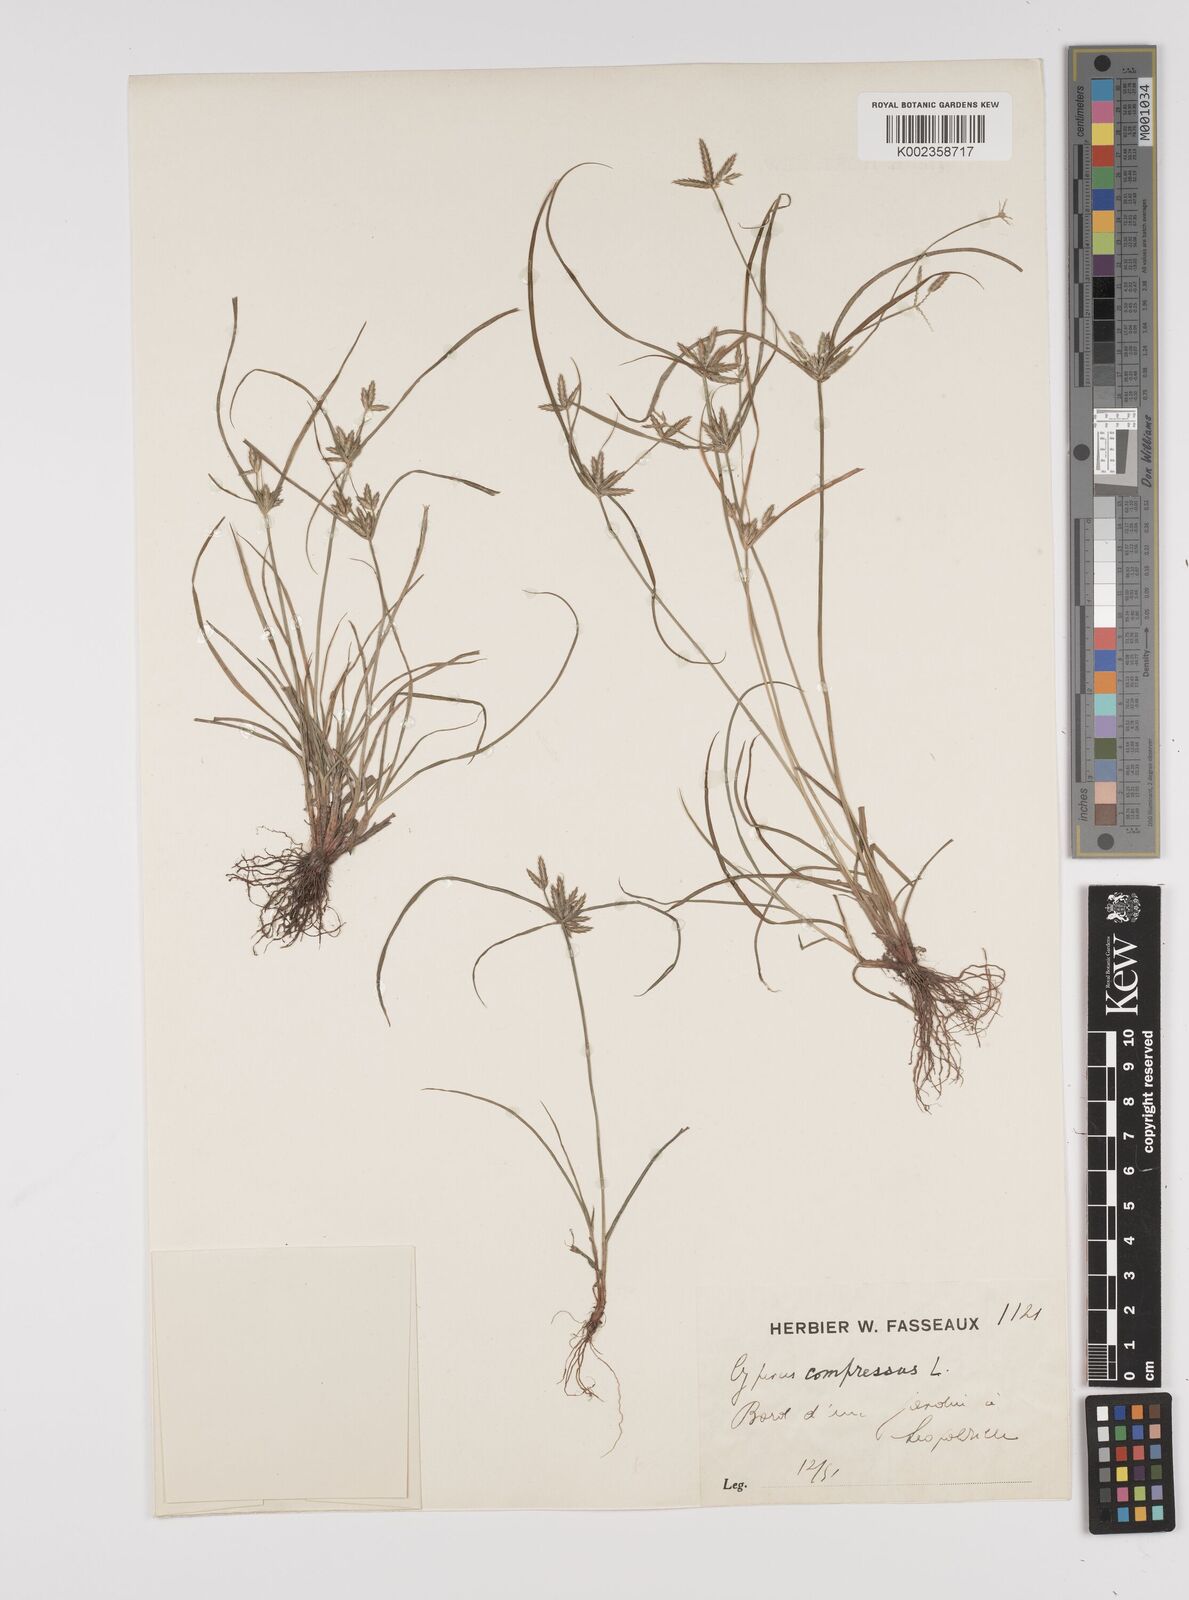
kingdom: Plantae
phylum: Tracheophyta
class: Liliopsida
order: Poales
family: Cyperaceae
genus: Cyperus
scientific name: Cyperus compressus
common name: Poorland flatsedge
